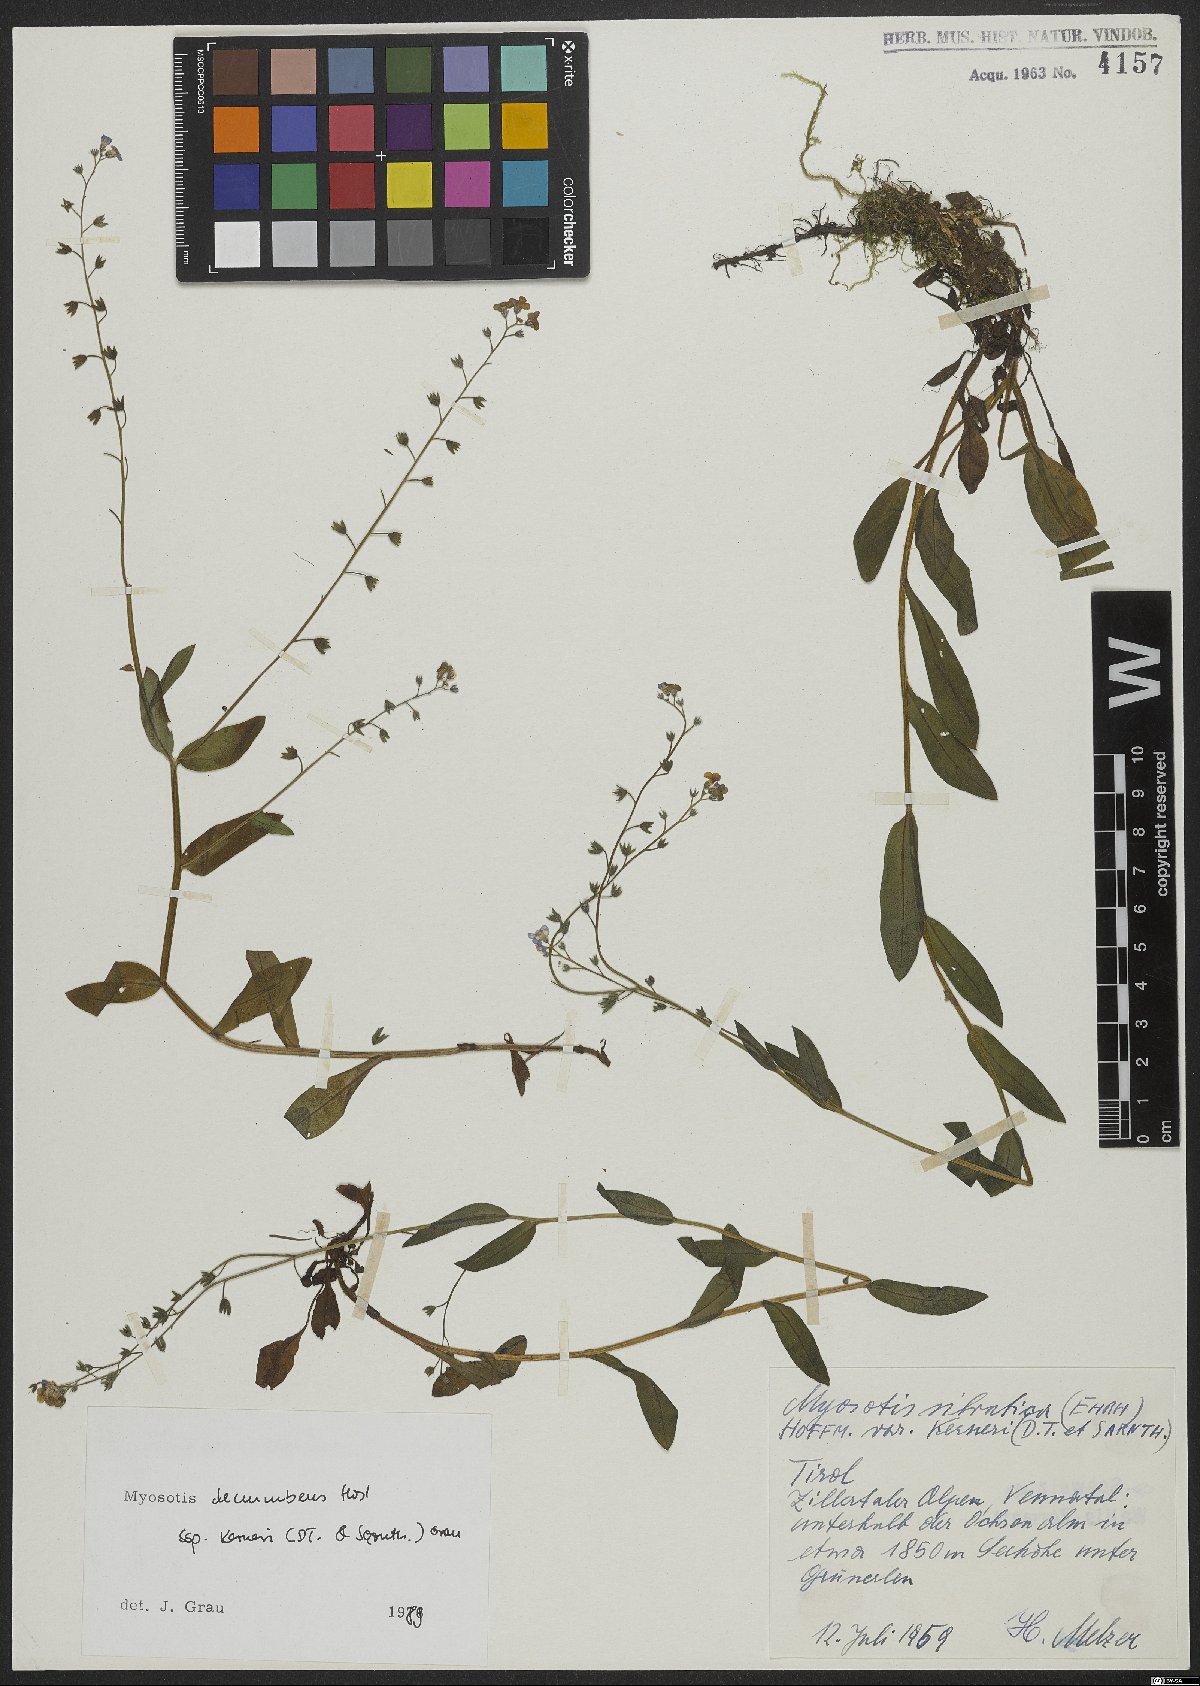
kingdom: Plantae
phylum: Tracheophyta
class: Magnoliopsida
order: Boraginales
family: Boraginaceae
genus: Myosotis
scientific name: Myosotis decumbens
